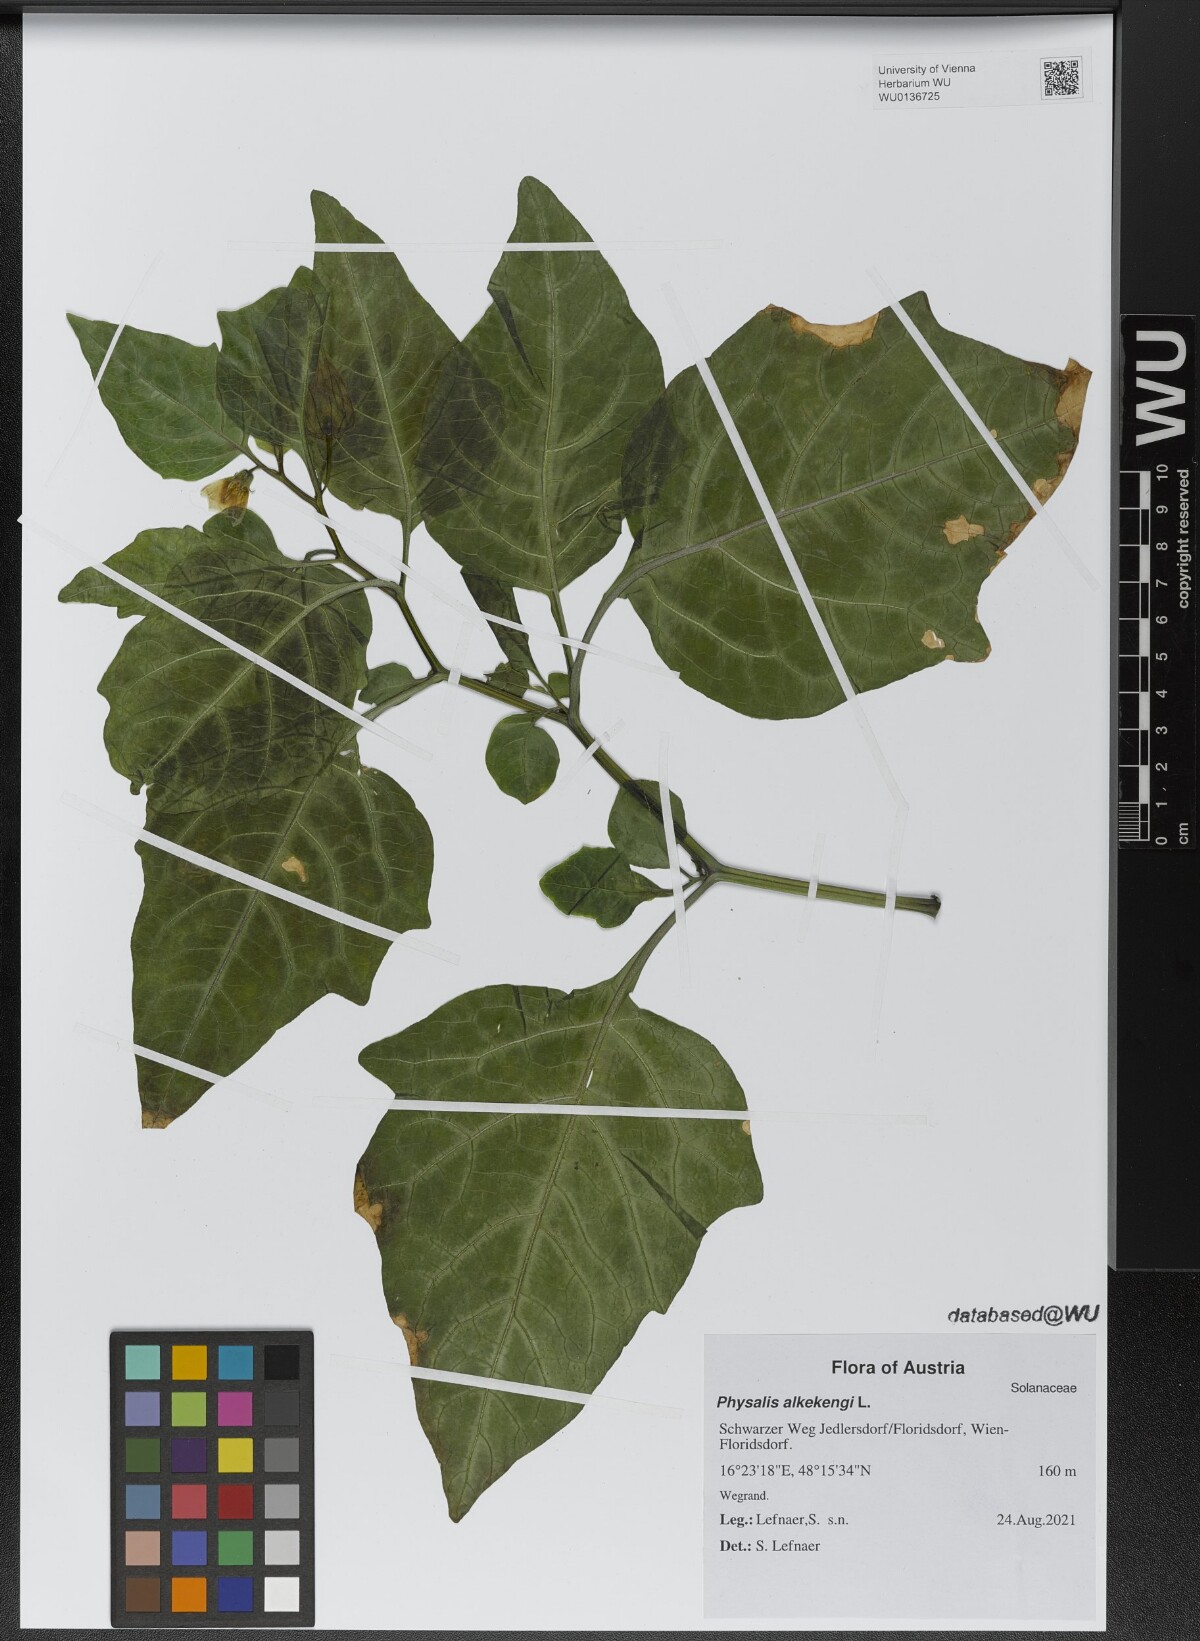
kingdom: Plantae
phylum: Tracheophyta
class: Magnoliopsida
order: Solanales
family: Solanaceae
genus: Alkekengi
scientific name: Alkekengi officinarum
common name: Japanese-lantern
